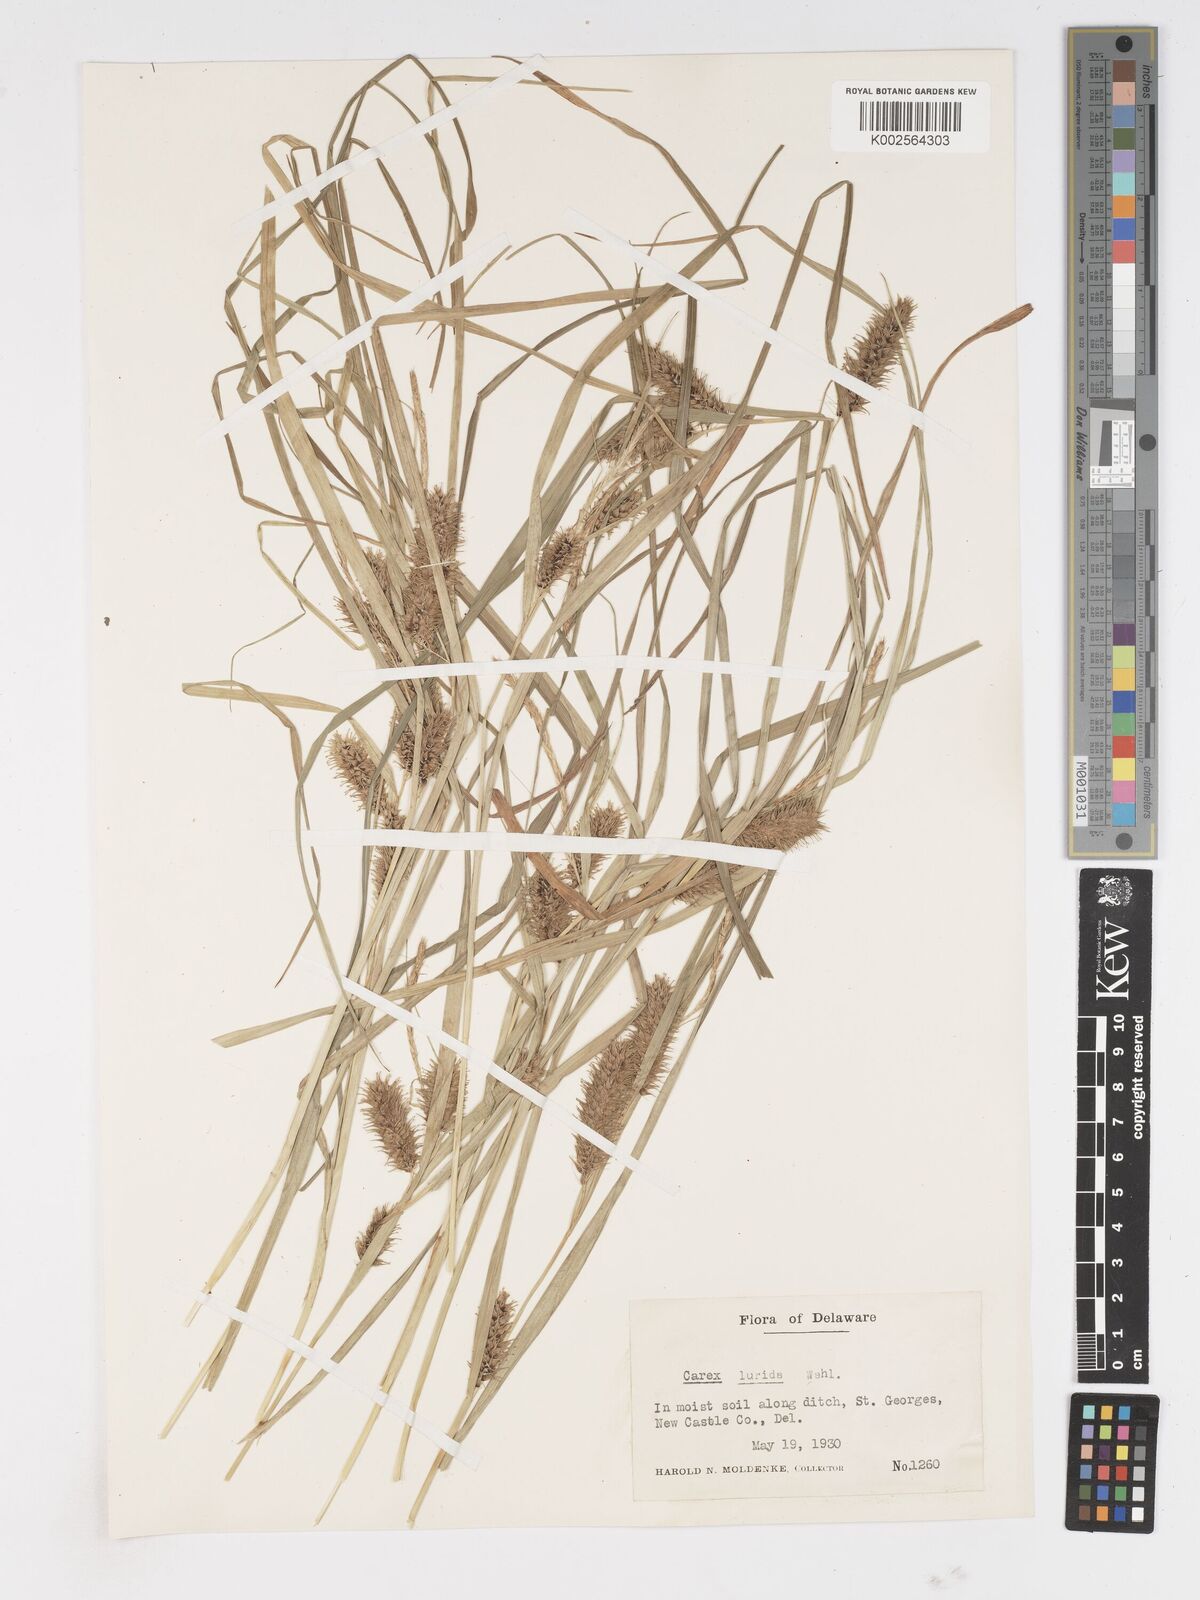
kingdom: Plantae
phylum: Tracheophyta
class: Liliopsida
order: Poales
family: Cyperaceae
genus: Carex
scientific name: Carex lurida
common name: Sallow sedge
